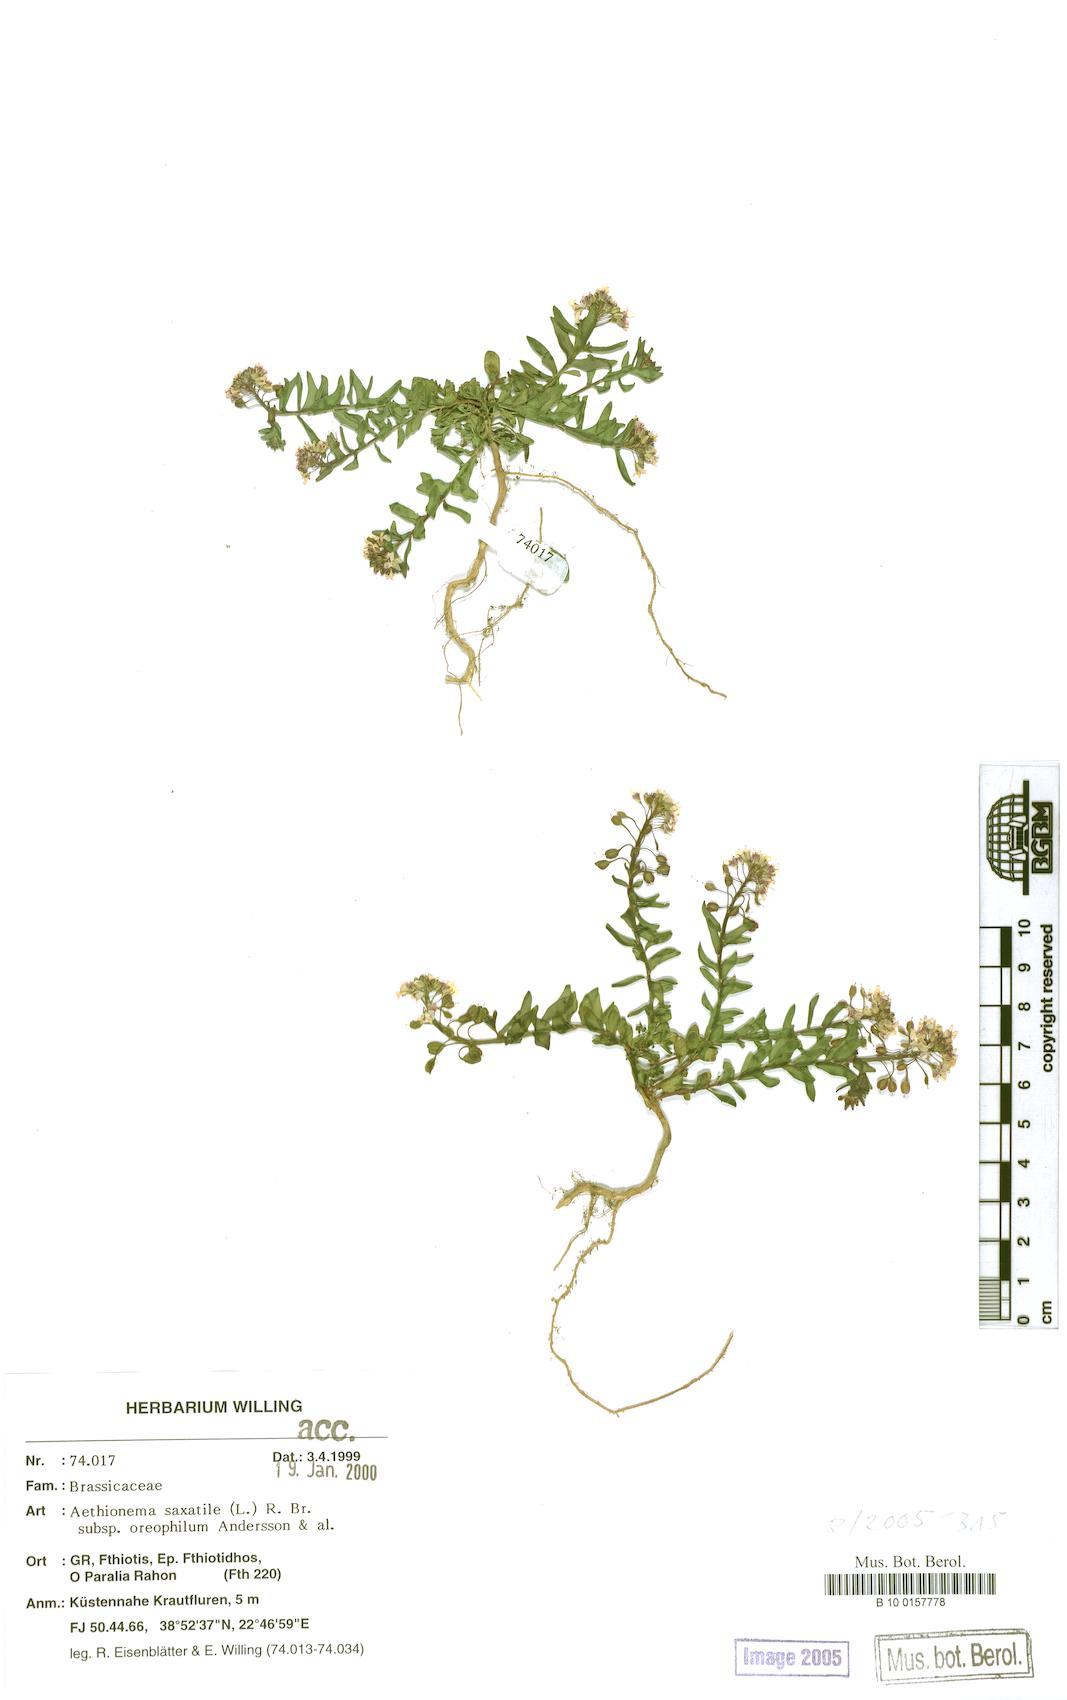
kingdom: Plantae
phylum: Tracheophyta
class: Magnoliopsida
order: Brassicales
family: Brassicaceae
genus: Aethionema
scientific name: Aethionema saxatile
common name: Burnt candytuft
